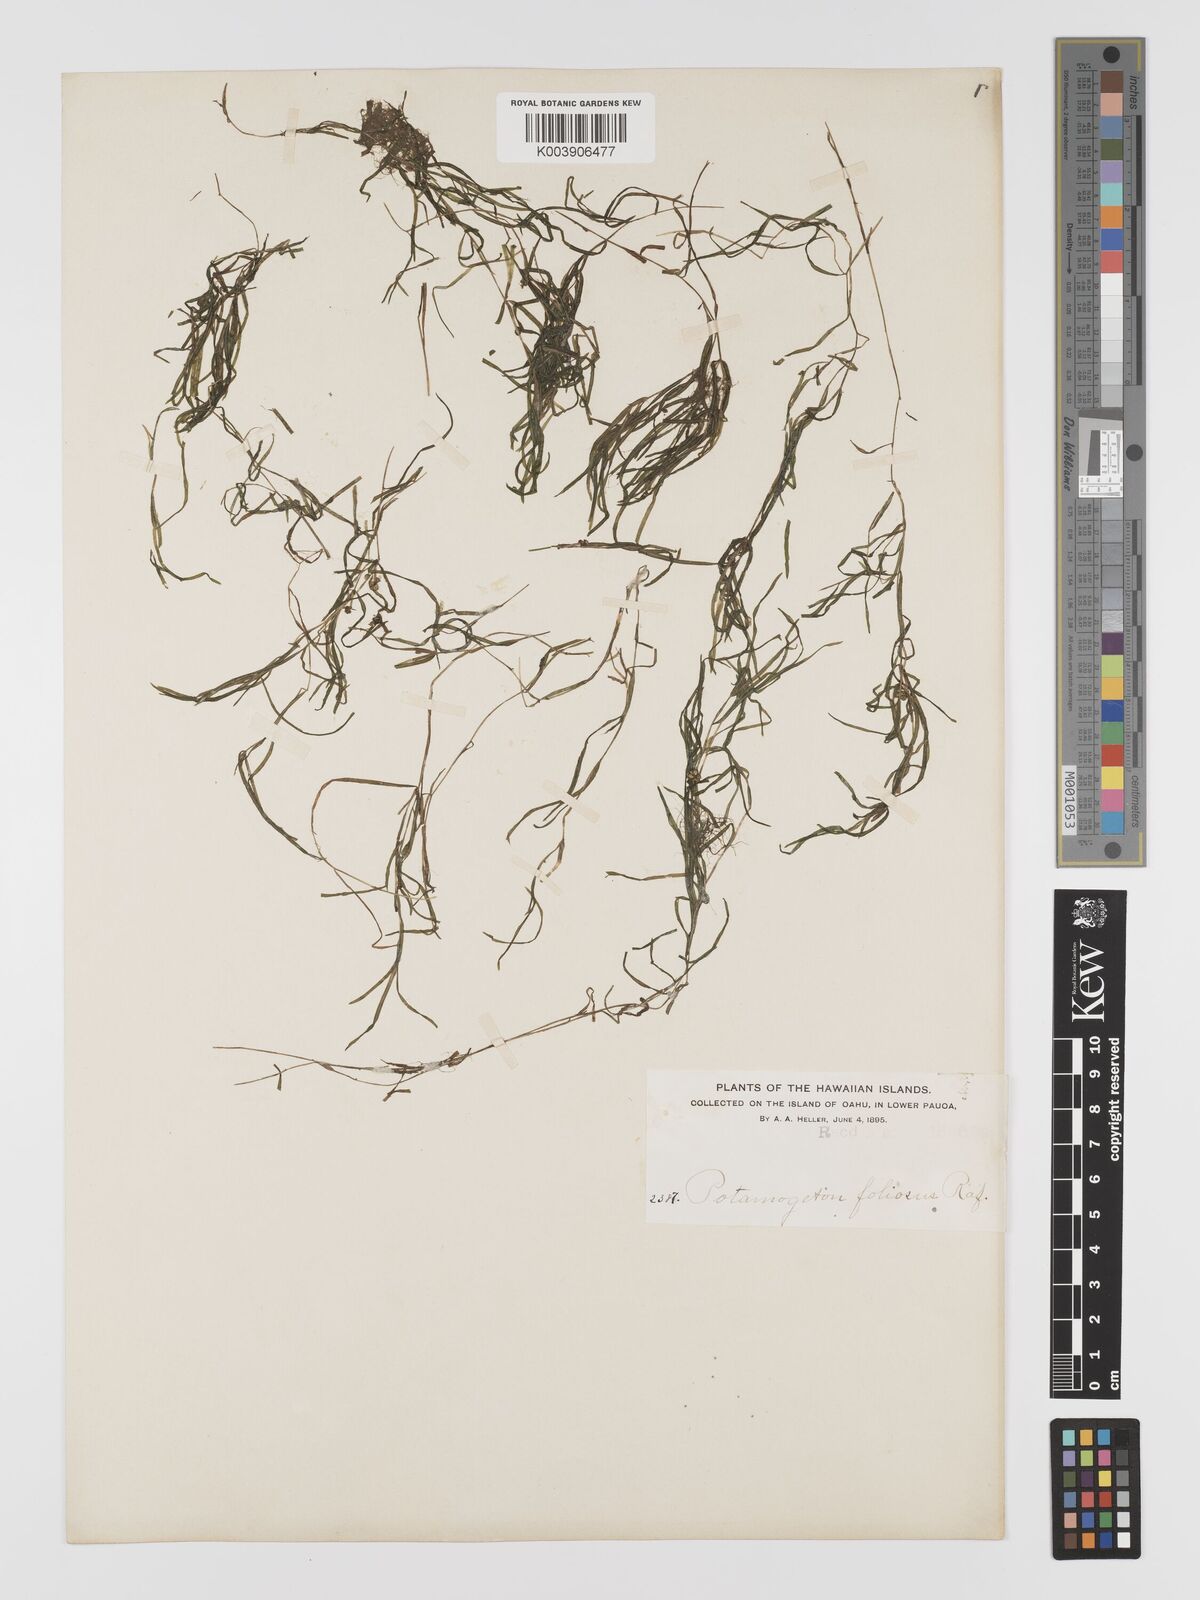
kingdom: Plantae
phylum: Tracheophyta
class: Liliopsida
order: Alismatales
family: Potamogetonaceae
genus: Potamogeton
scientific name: Potamogeton foliosus
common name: Leafy pondweed
